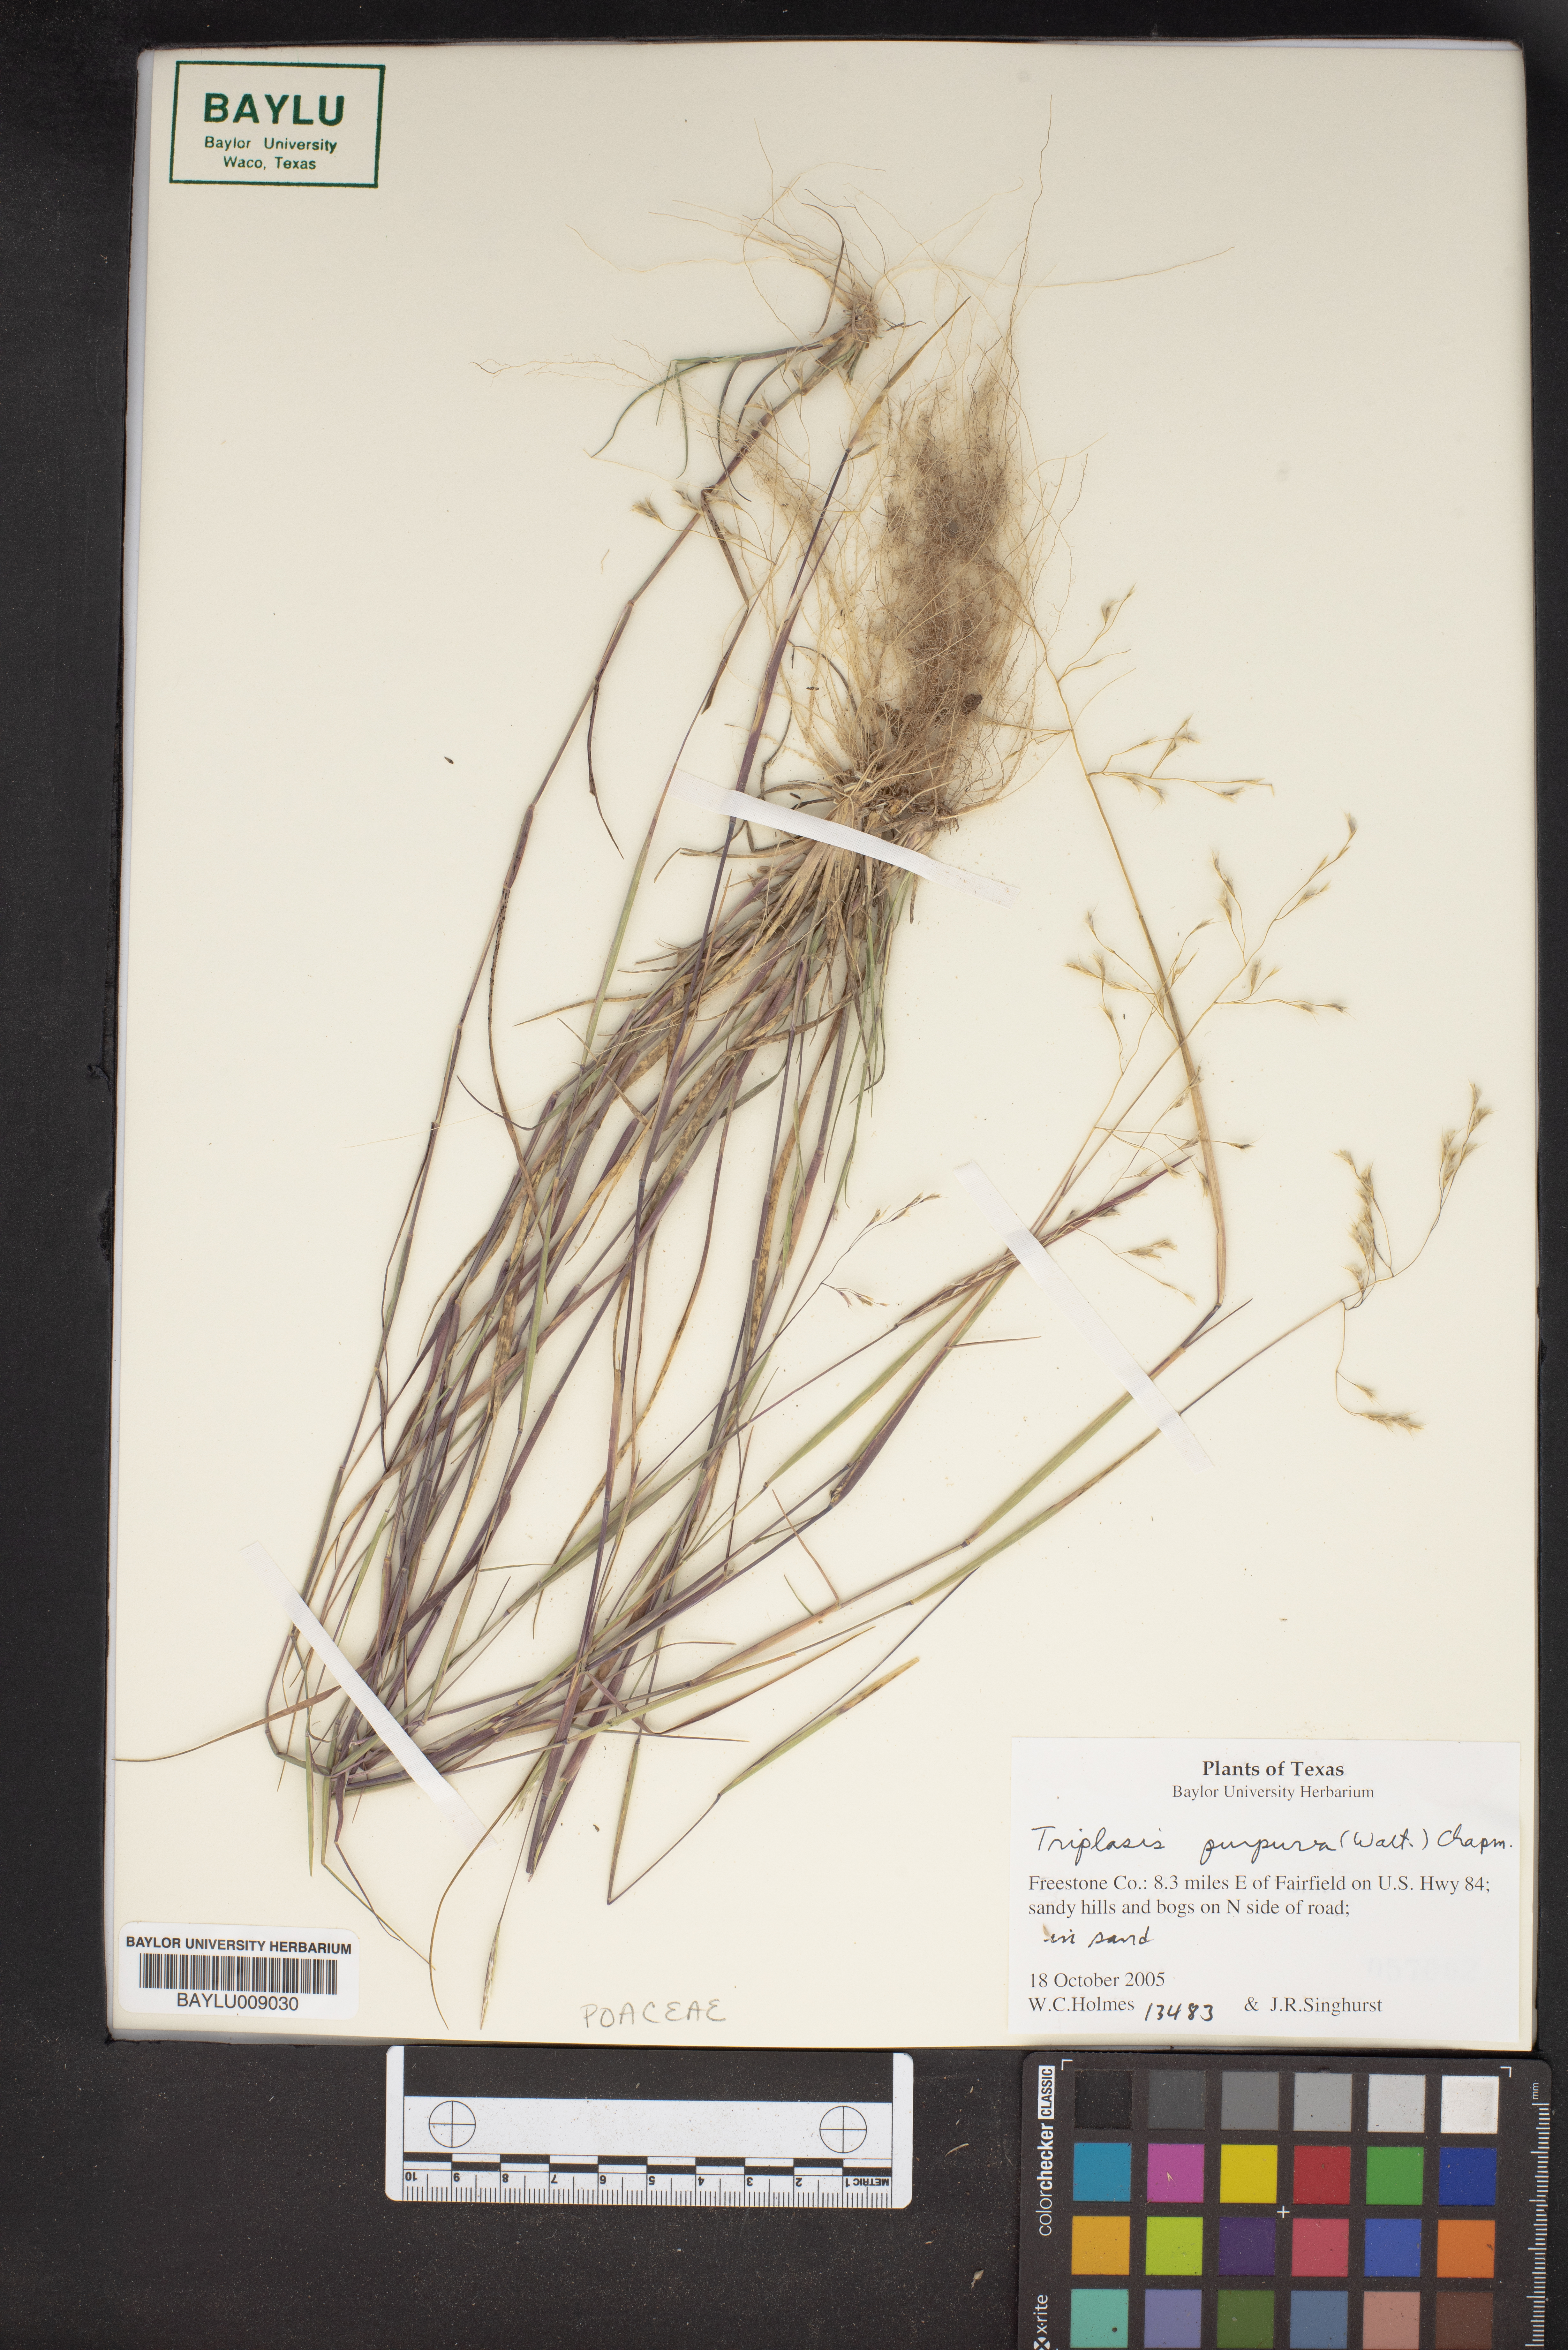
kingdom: Plantae
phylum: Tracheophyta
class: Liliopsida
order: Poales
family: Poaceae
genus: Triplasis
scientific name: Triplasis purpurea
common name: Purple sand grass
